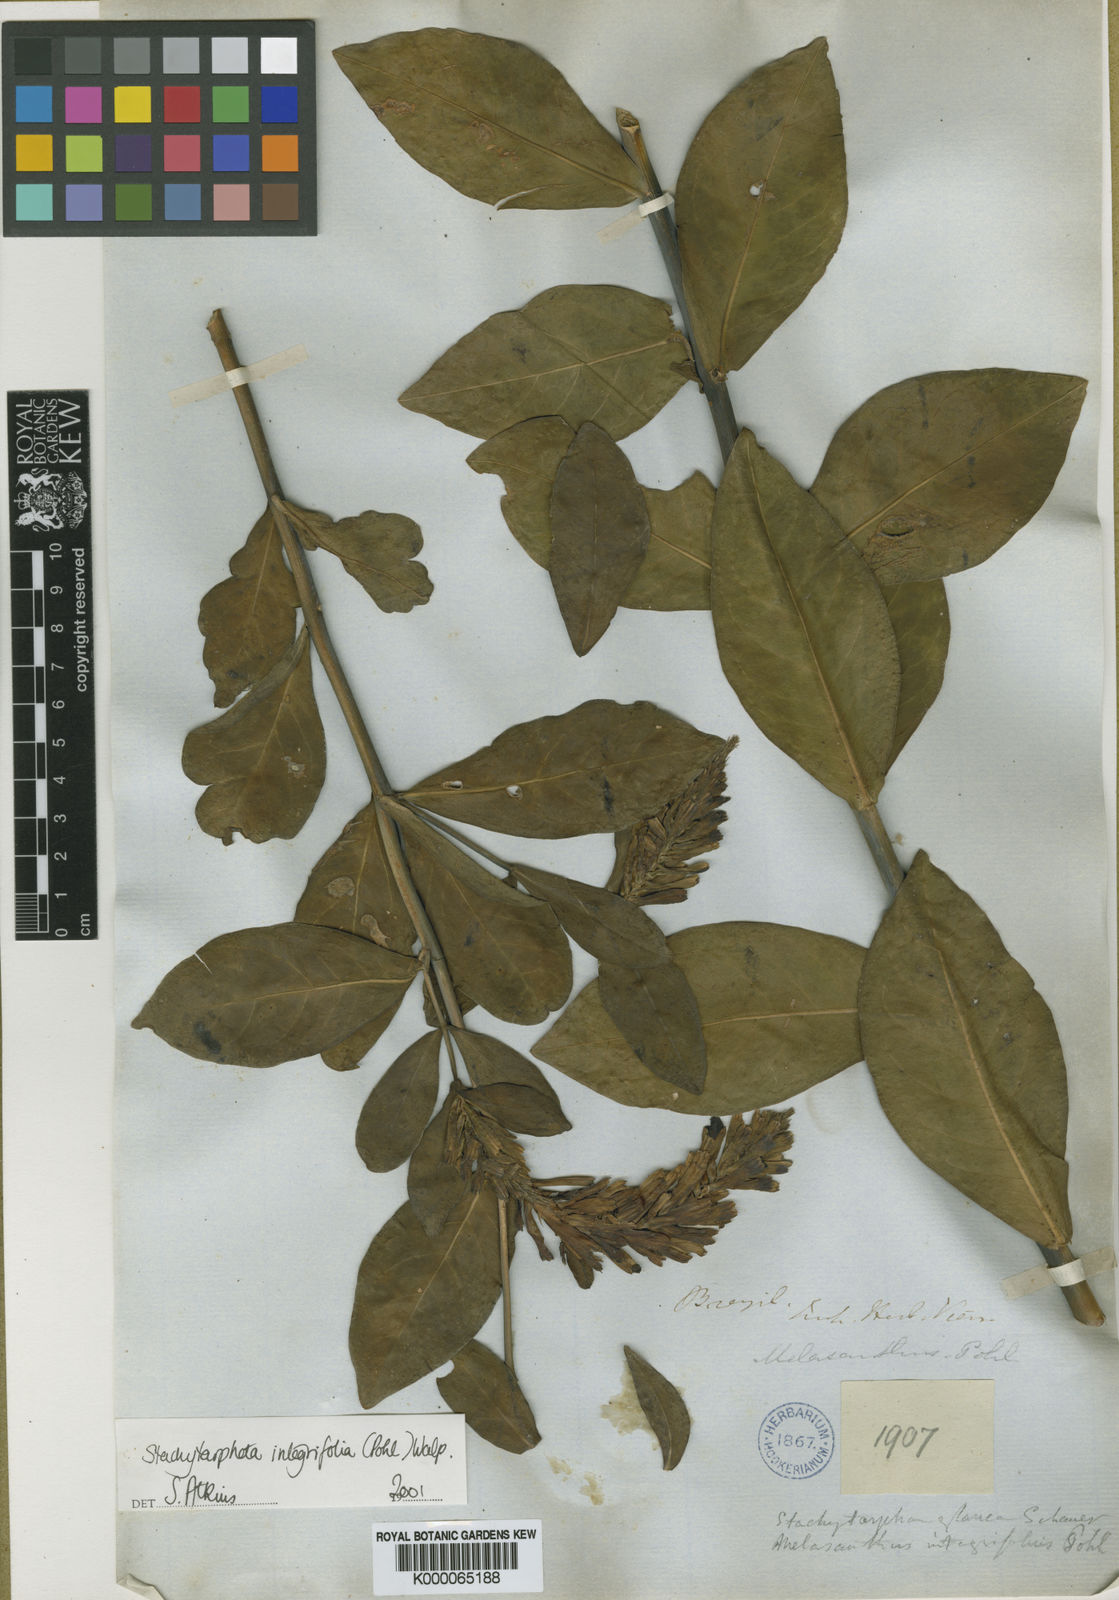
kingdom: Plantae
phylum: Tracheophyta
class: Magnoliopsida
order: Lamiales
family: Verbenaceae
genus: Stachytarpheta
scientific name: Stachytarpheta integrifolia
